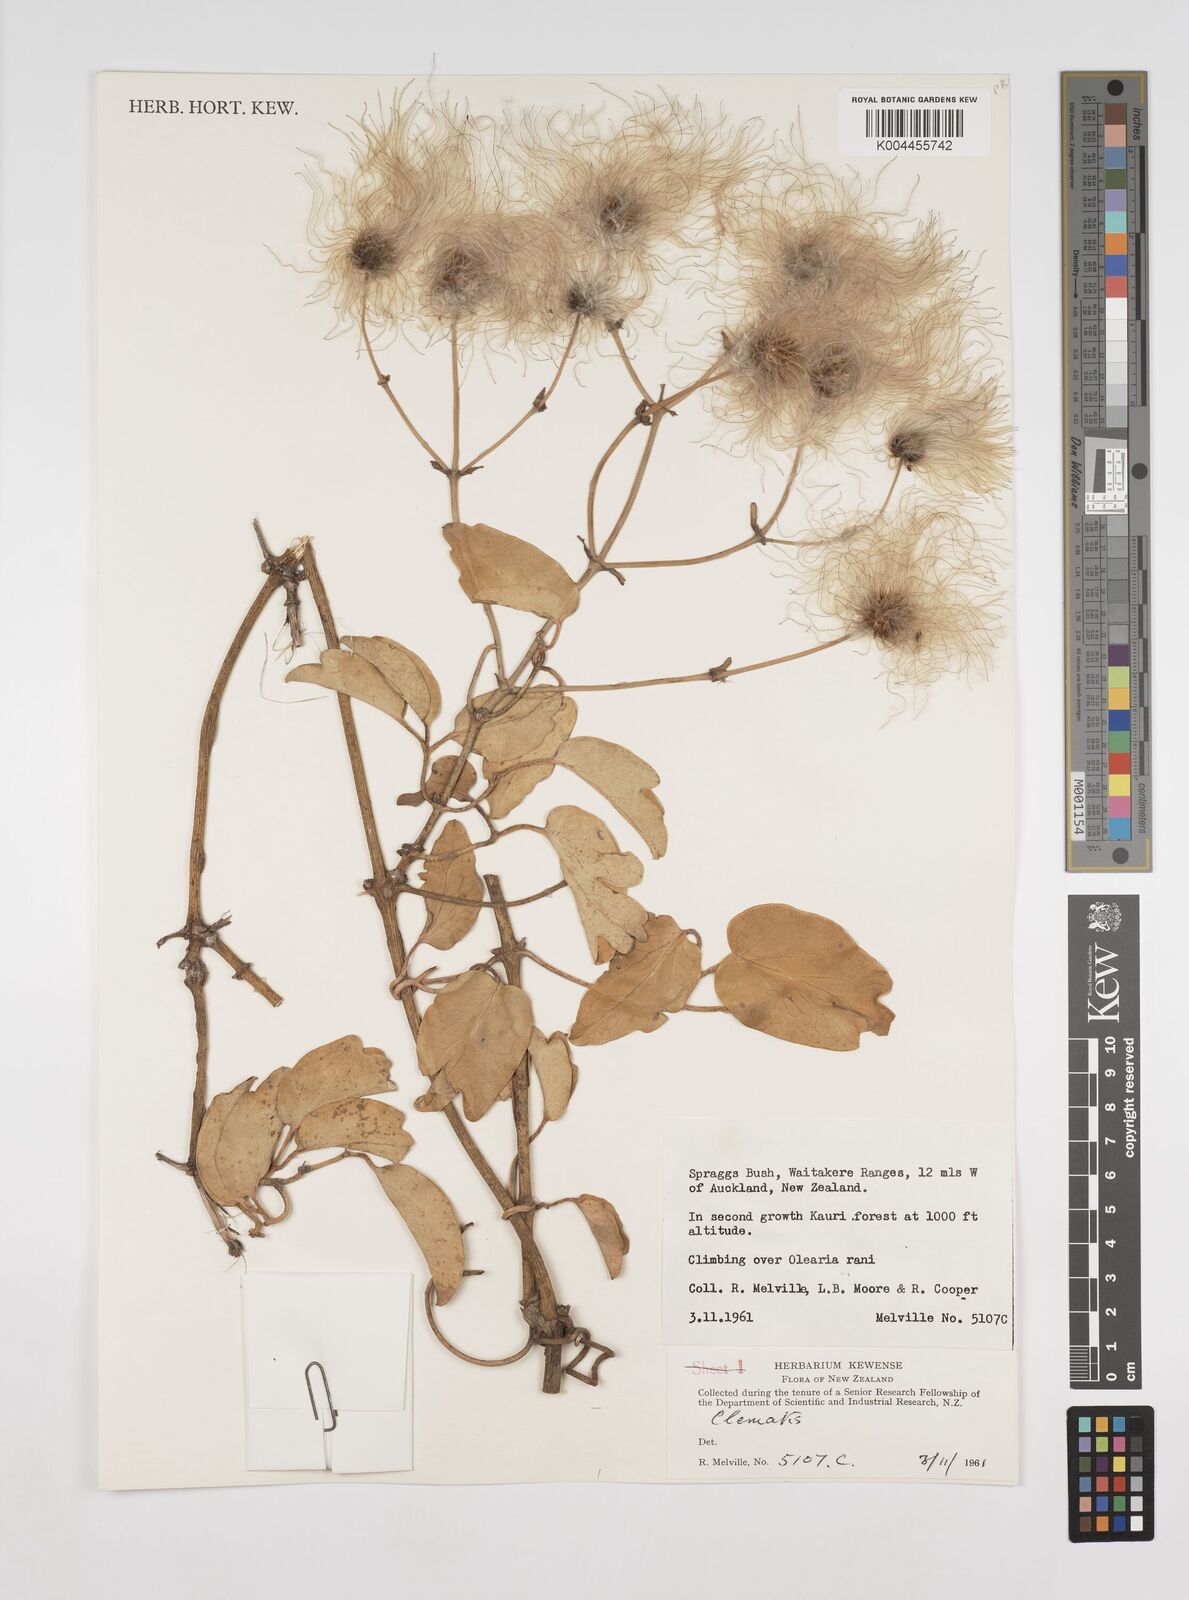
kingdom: Plantae
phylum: Tracheophyta
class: Magnoliopsida
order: Ranunculales
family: Ranunculaceae
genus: Clematis
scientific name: Clematis
